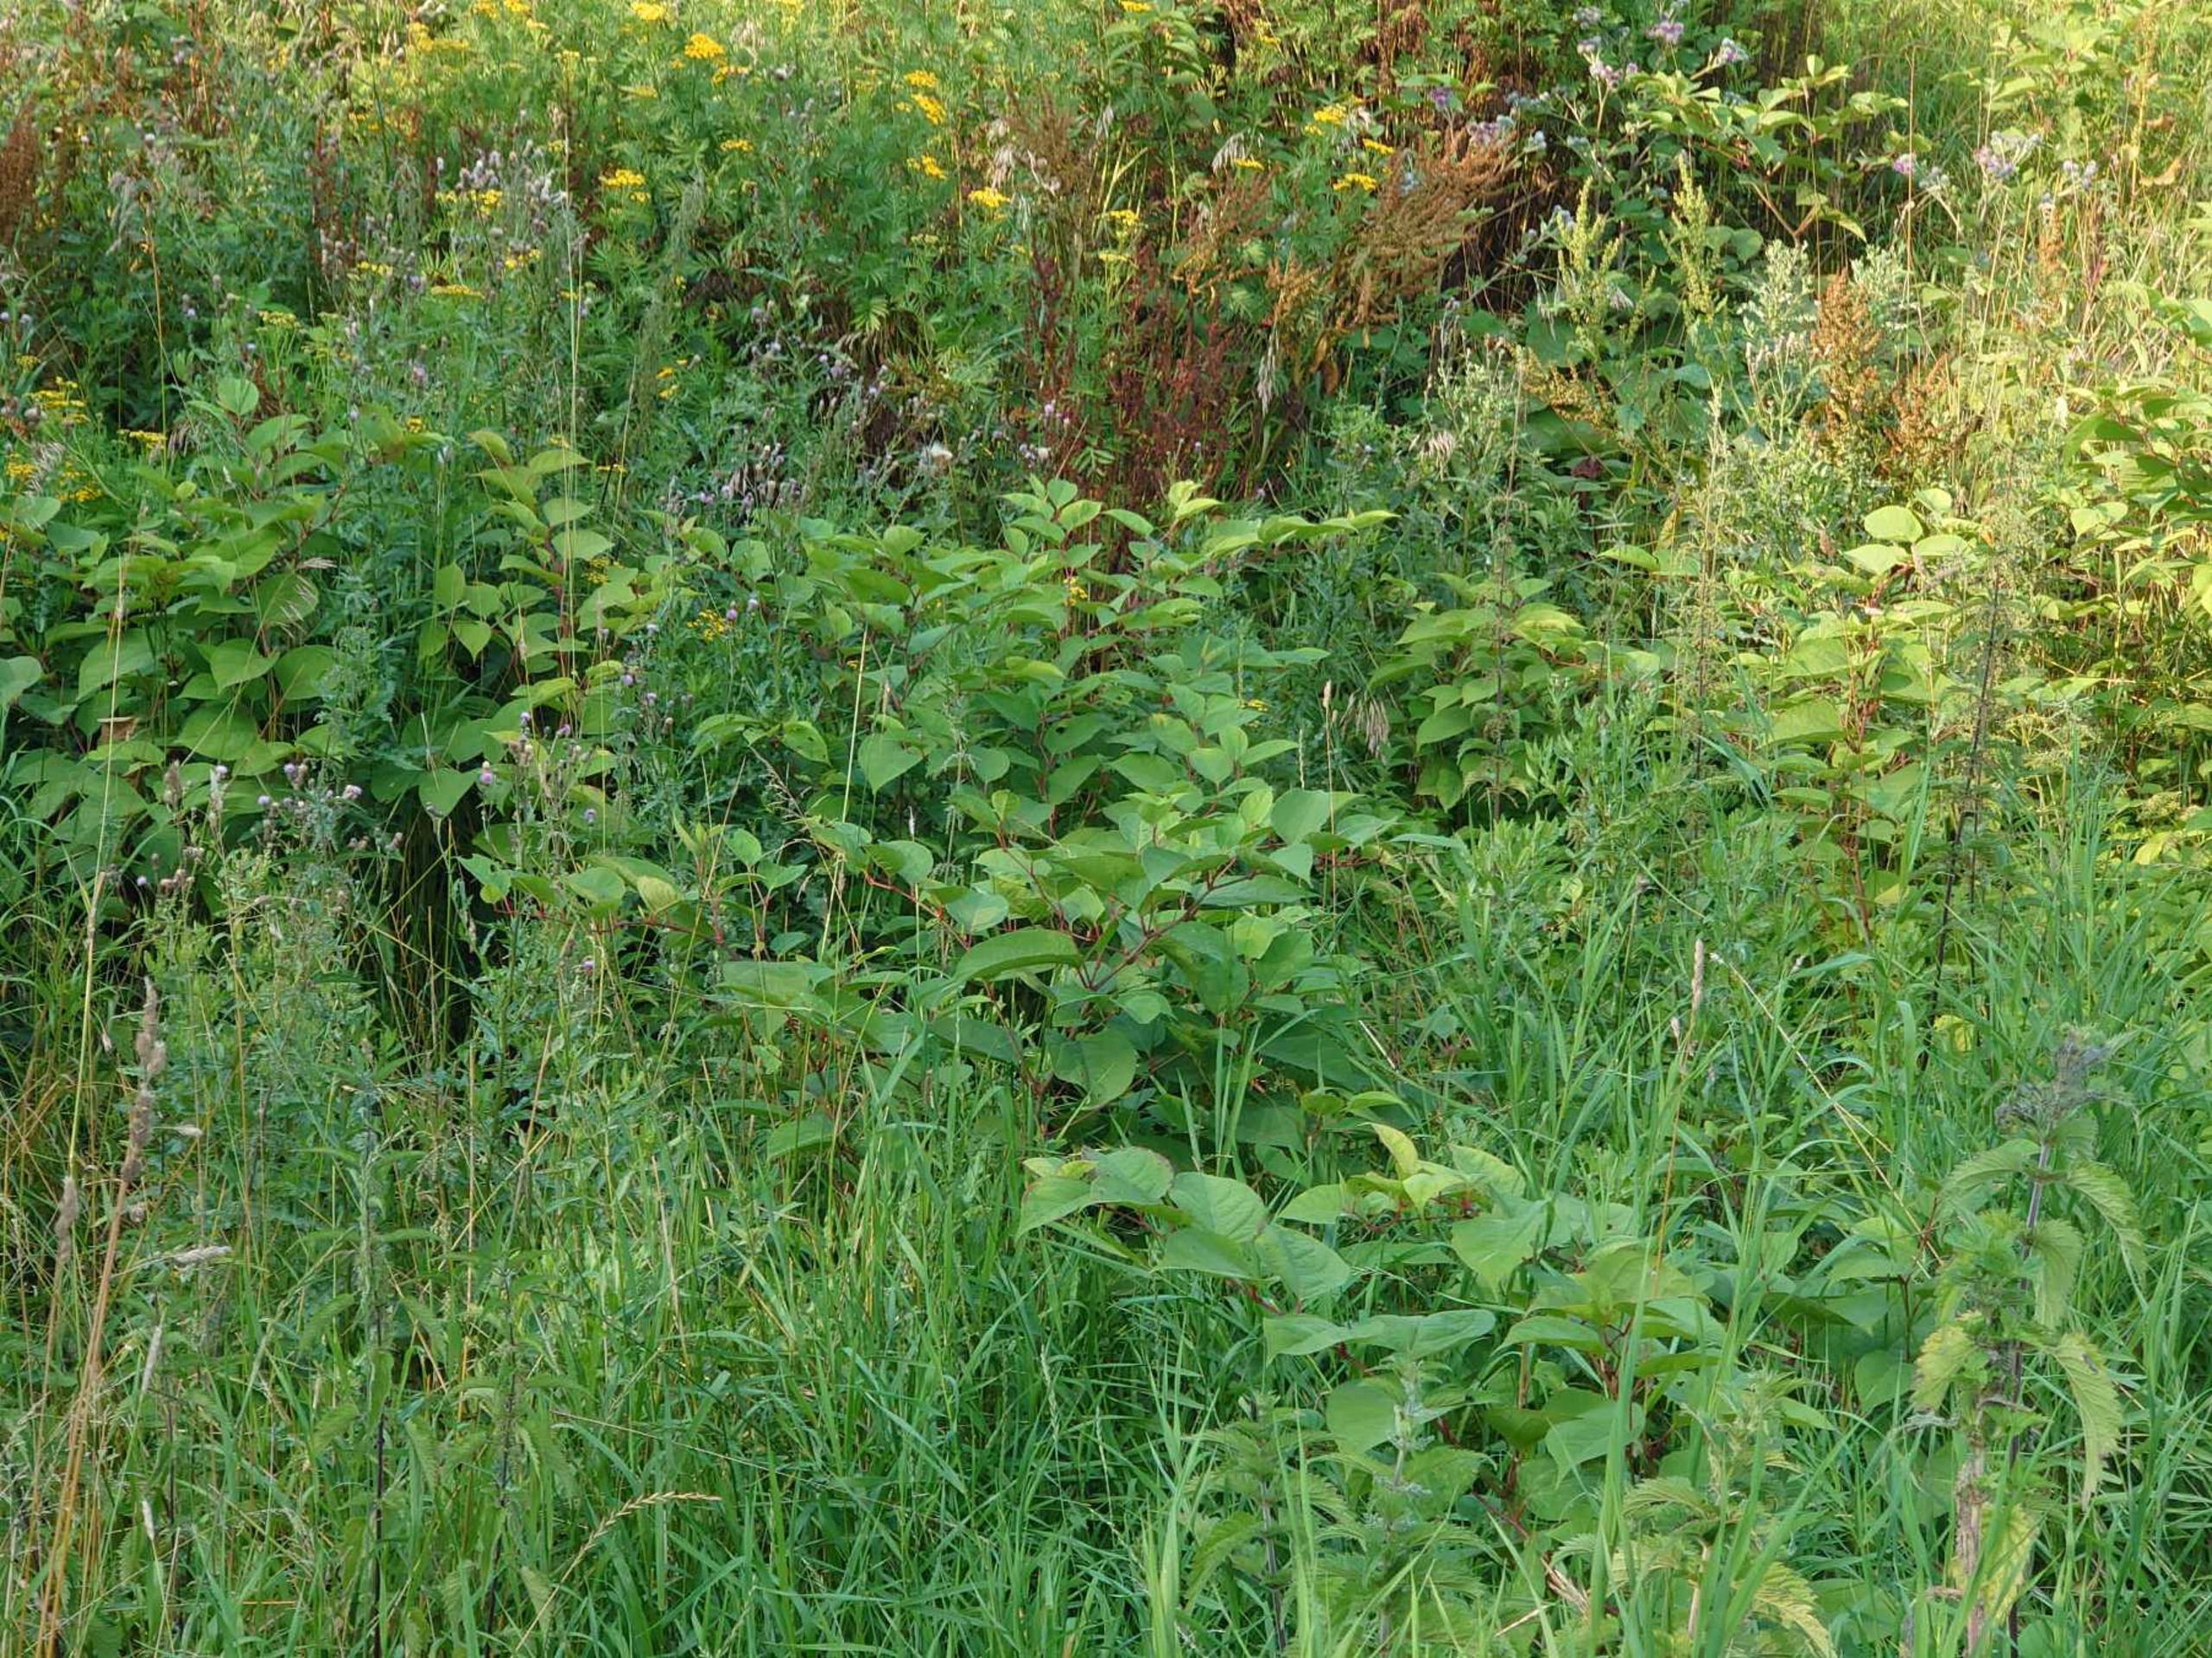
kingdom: Plantae
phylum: Tracheophyta
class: Magnoliopsida
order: Caryophyllales
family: Polygonaceae
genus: Reynoutria
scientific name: Reynoutria japonica
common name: Japan-pileurt
